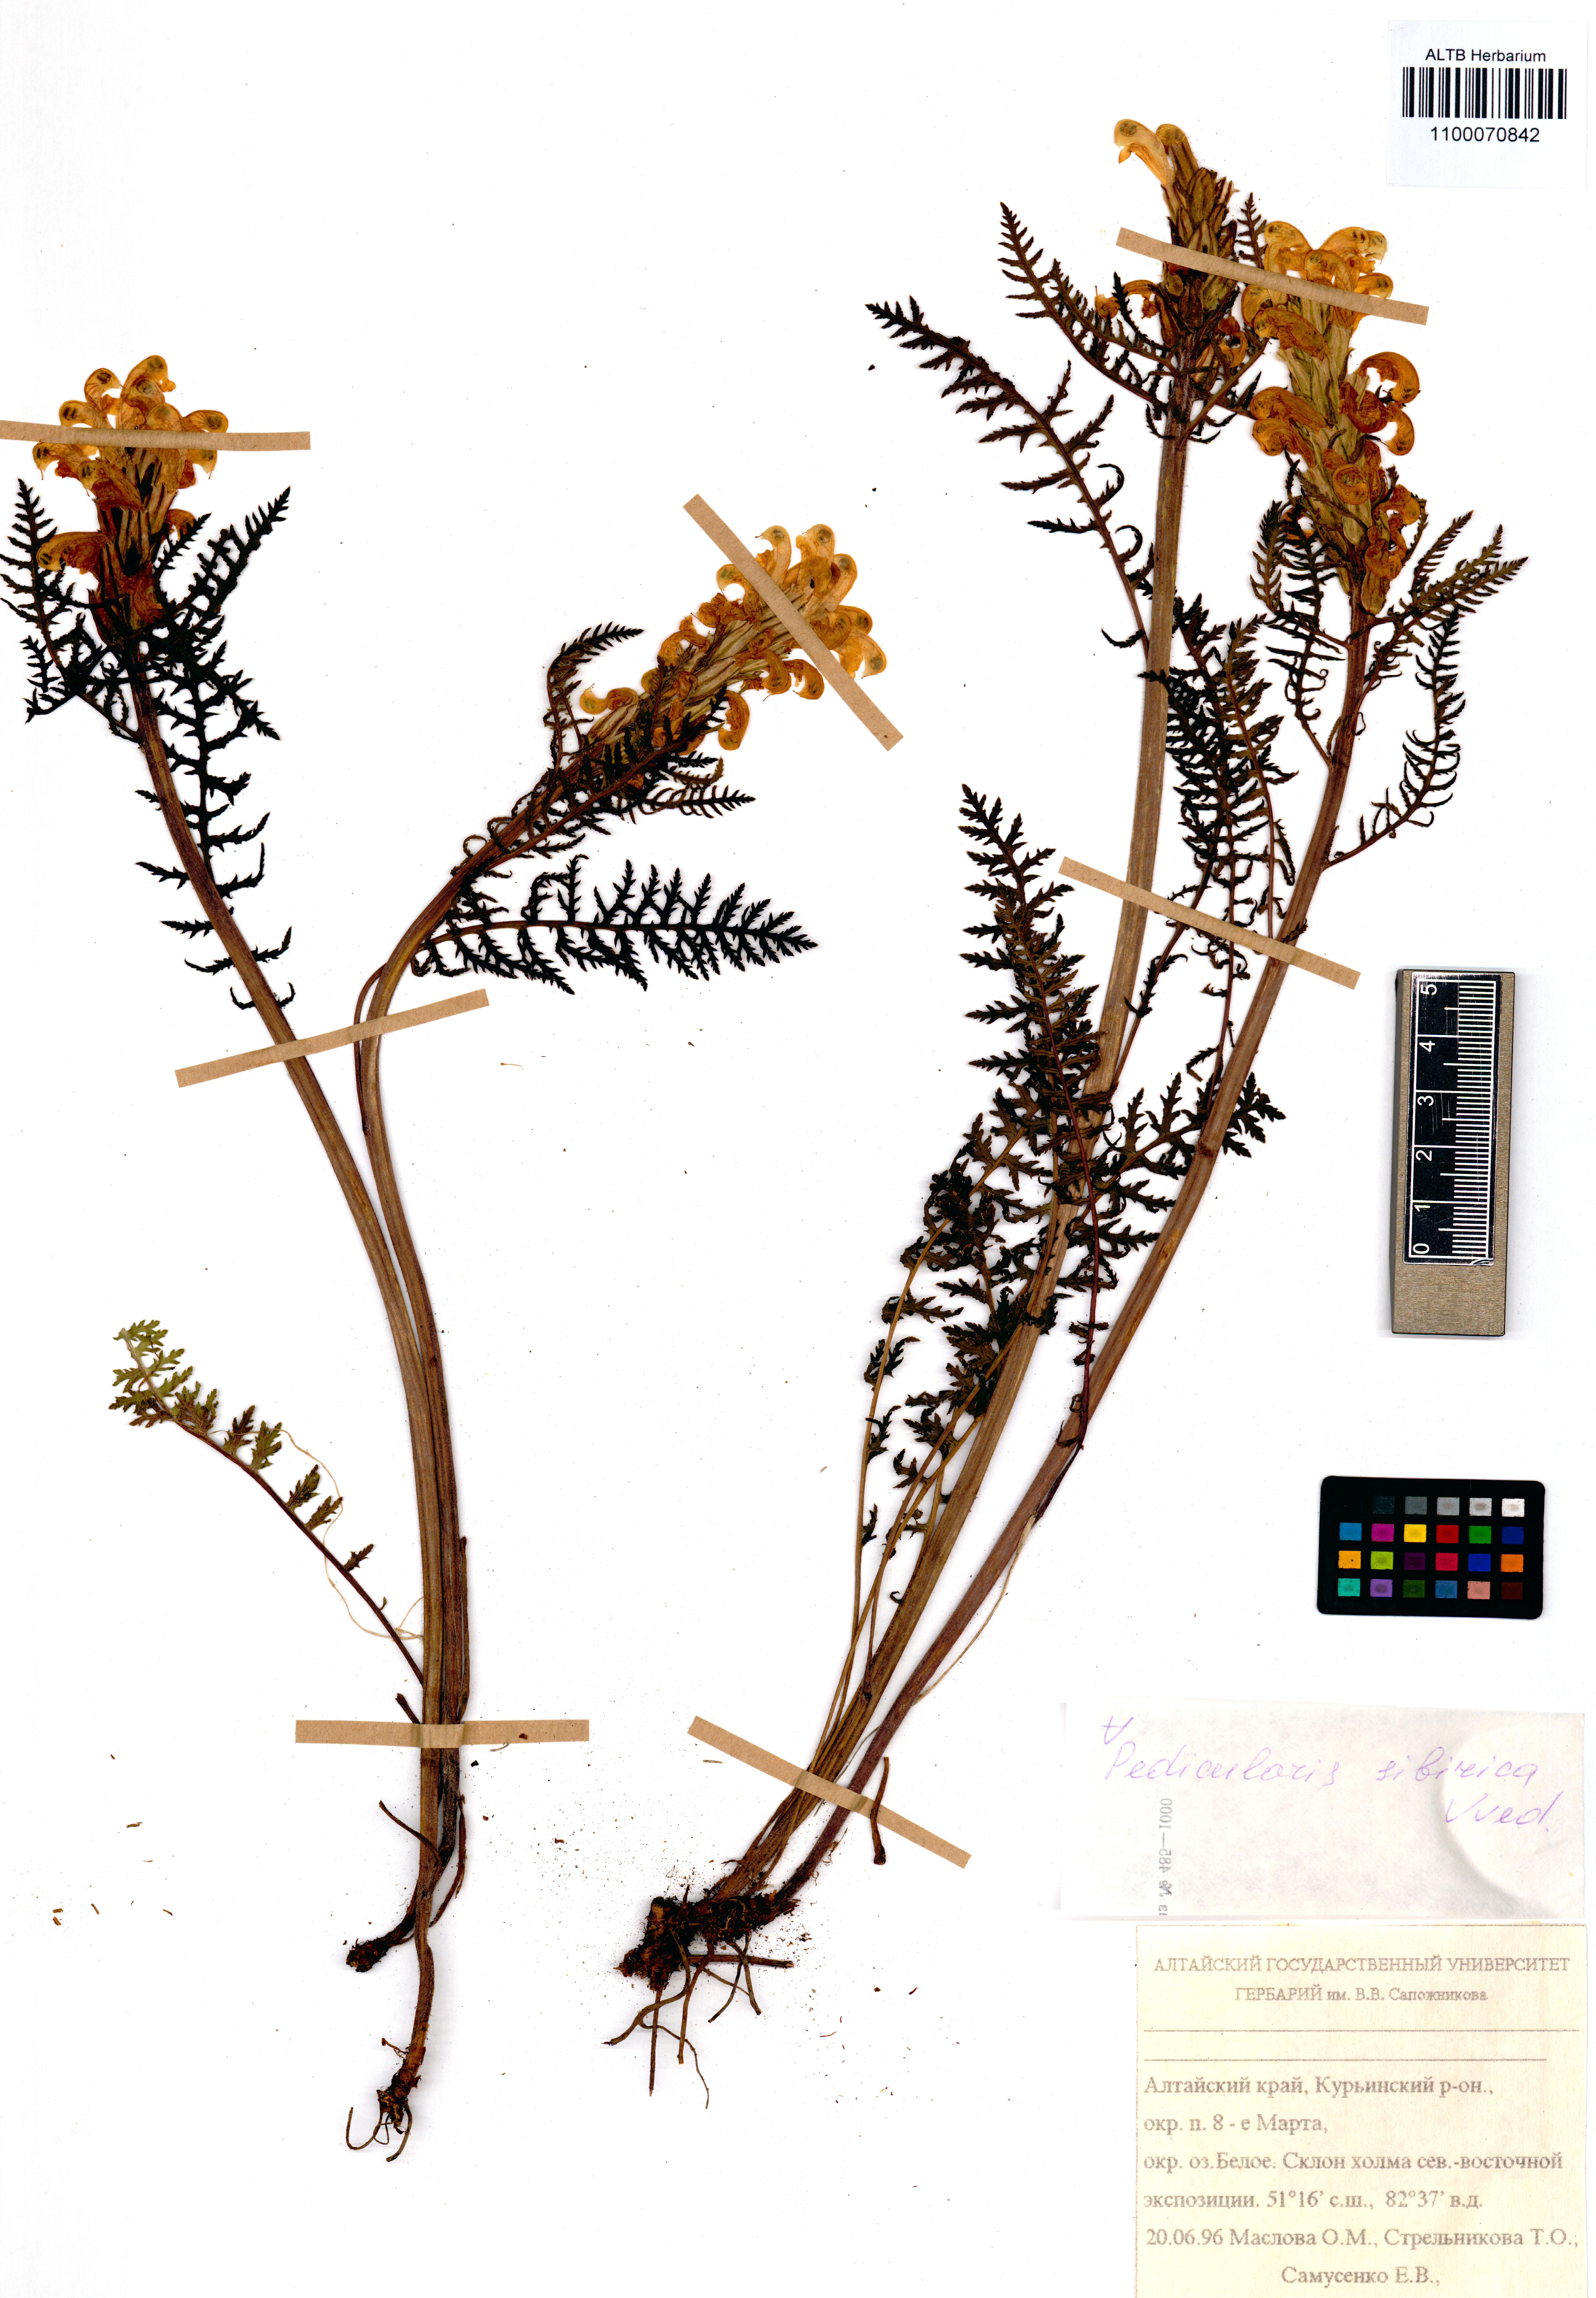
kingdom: Plantae
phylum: Tracheophyta
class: Magnoliopsida
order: Lamiales
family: Orobanchaceae
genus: Pedicularis
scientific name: Pedicularis sibirica
